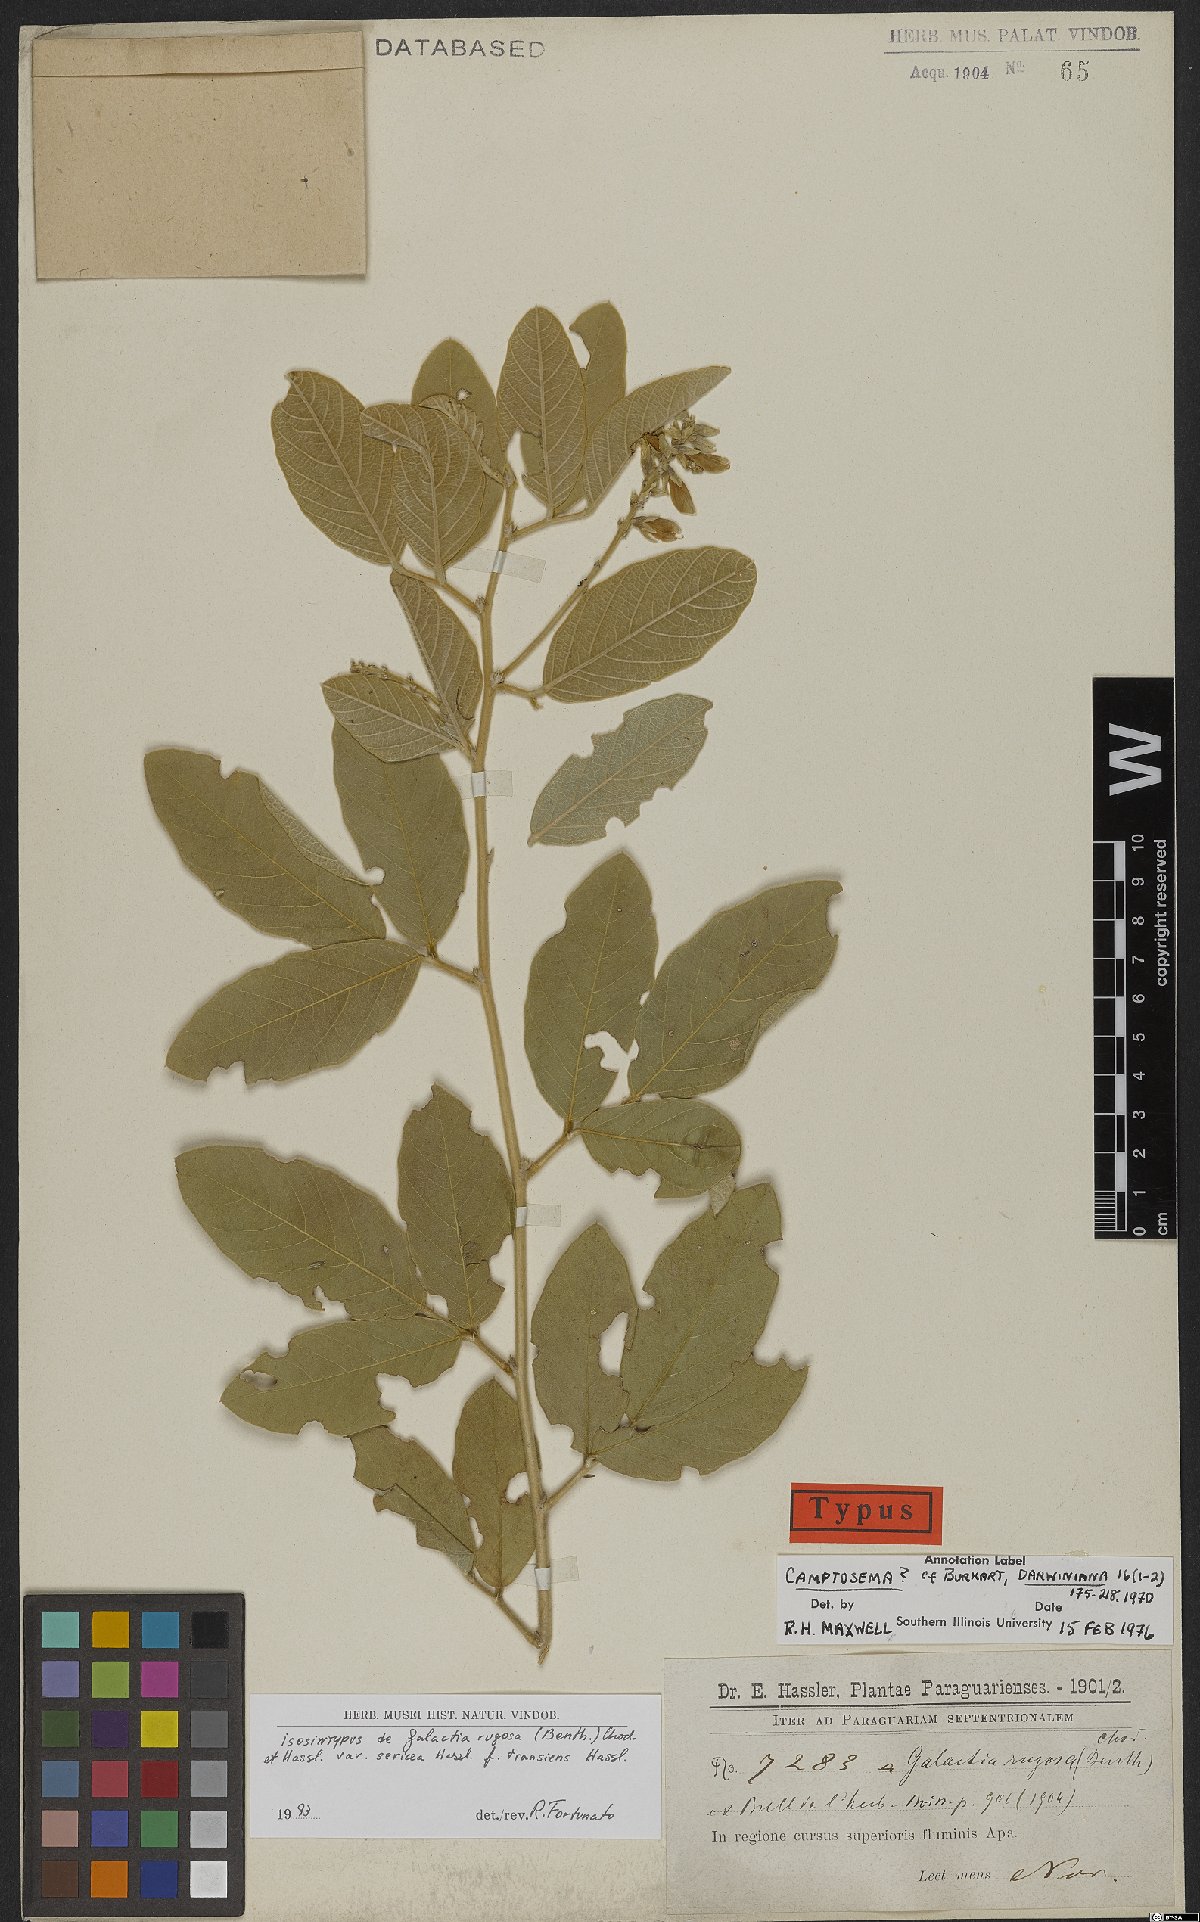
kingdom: Plantae
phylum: Tracheophyta
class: Magnoliopsida
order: Fabales
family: Fabaceae
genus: Cerradicola
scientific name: Cerradicola elliptica
